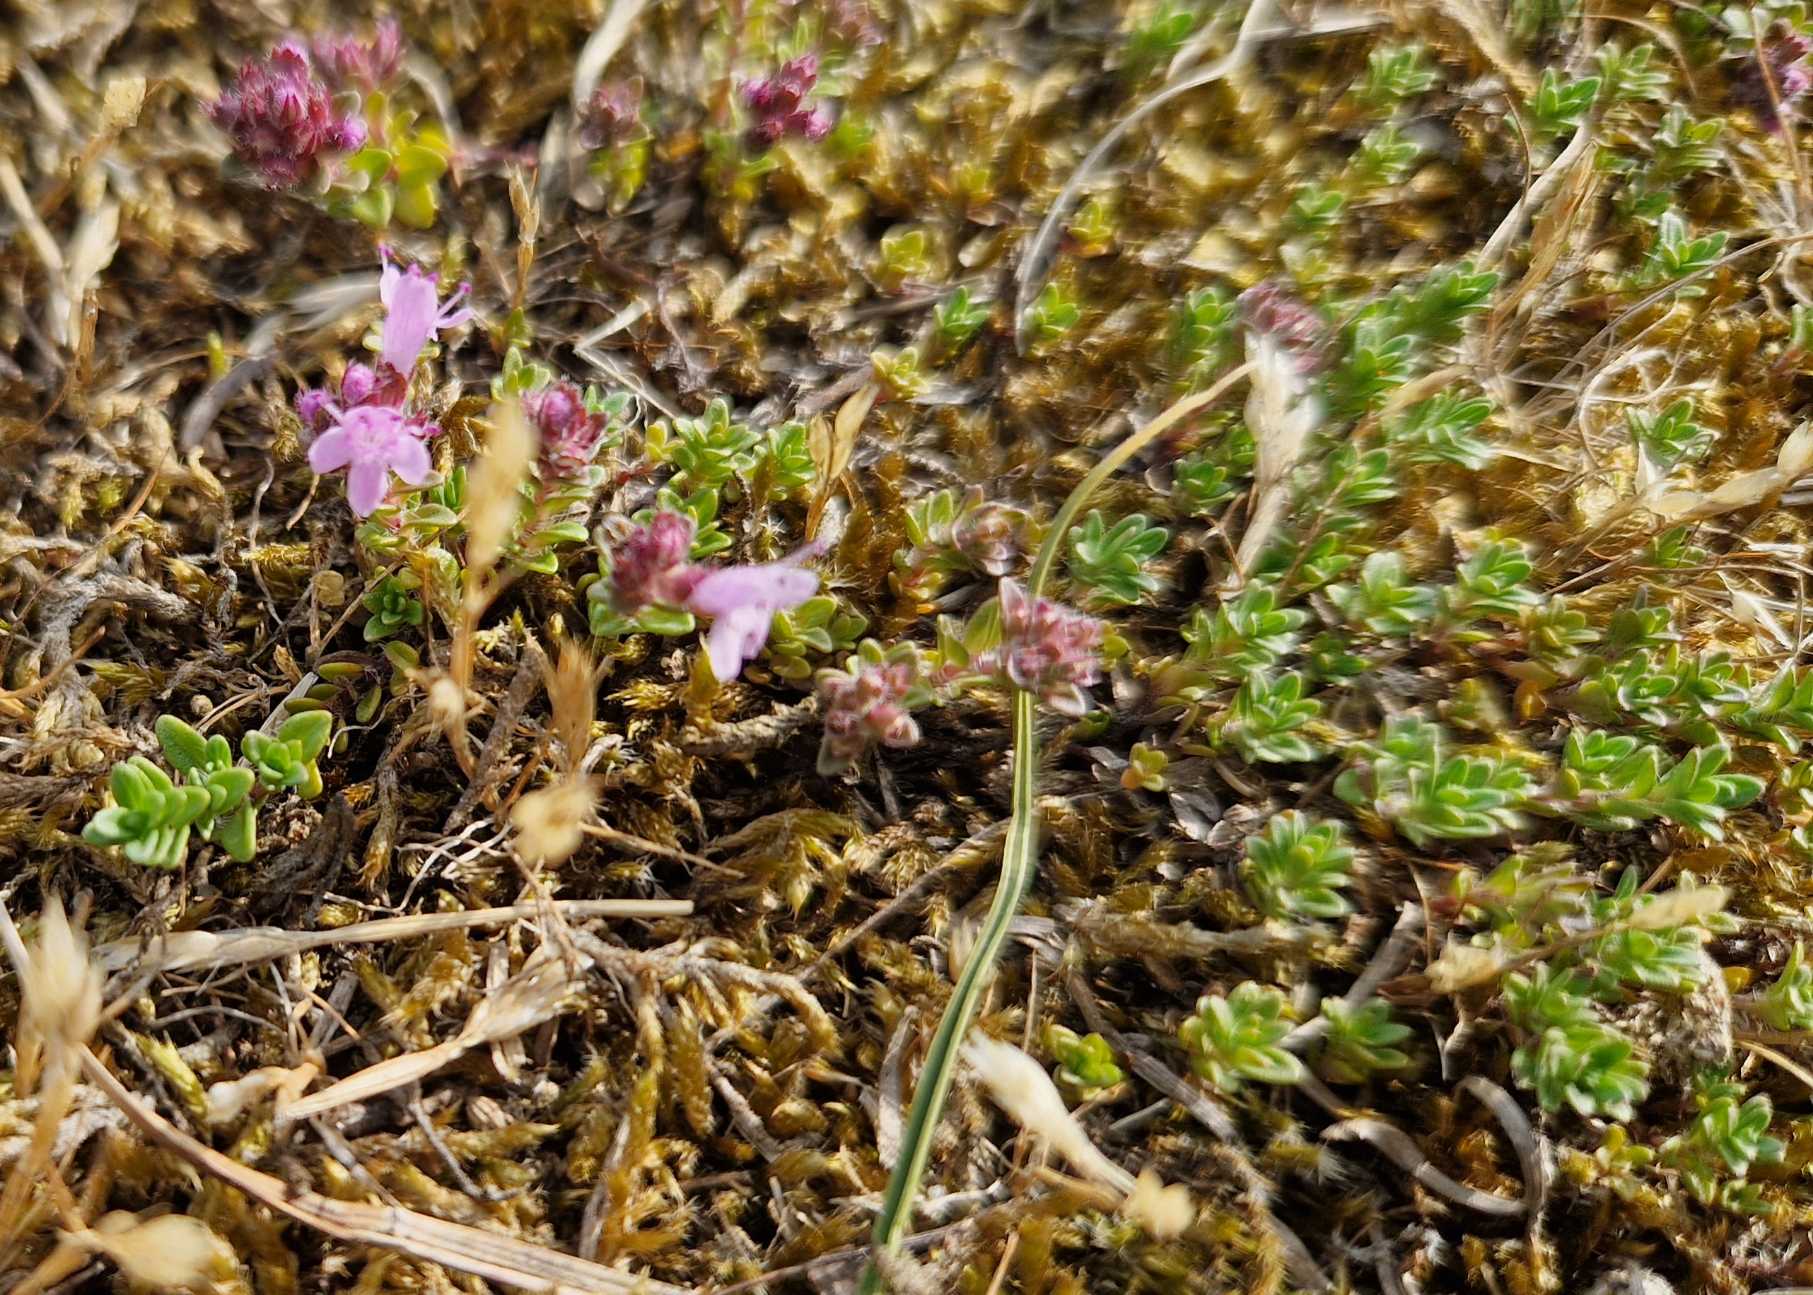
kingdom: Plantae
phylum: Tracheophyta
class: Magnoliopsida
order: Lamiales
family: Lamiaceae
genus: Thymus
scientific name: Thymus serpyllum
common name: Smalbladet timian
